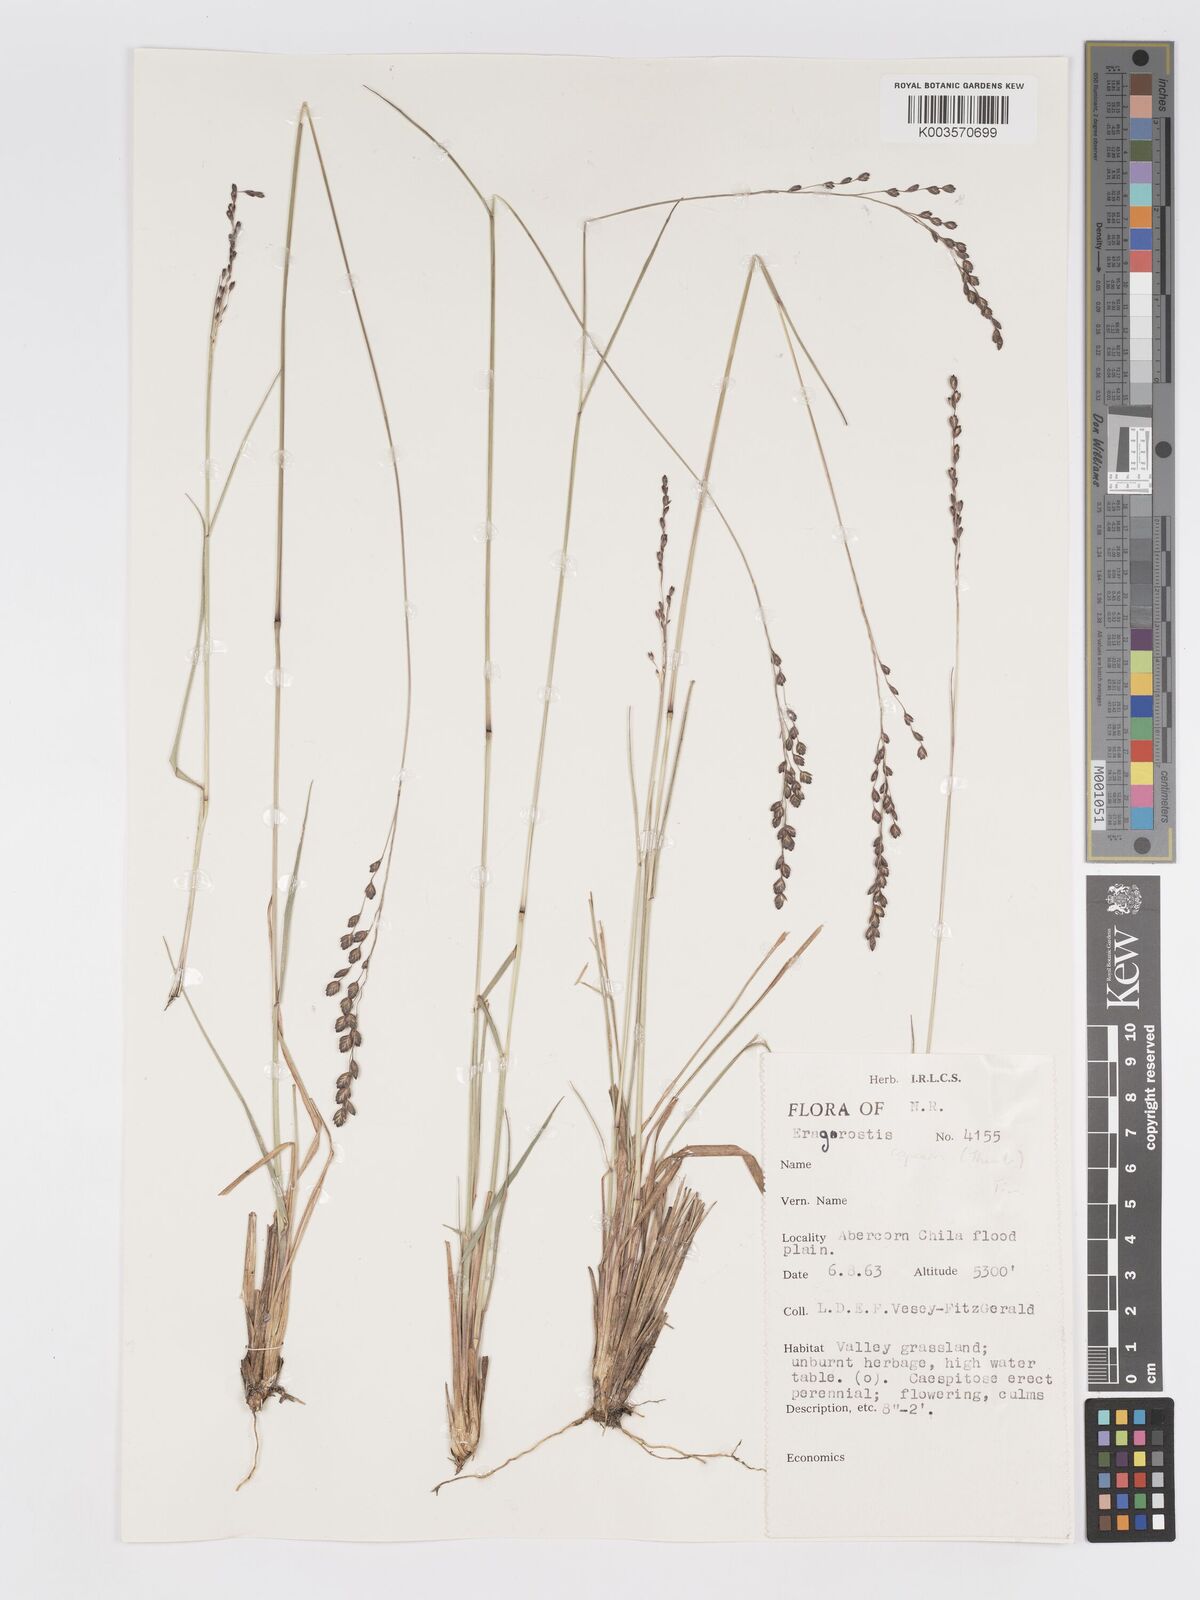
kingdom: Plantae
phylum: Tracheophyta
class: Liliopsida
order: Poales
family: Poaceae
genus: Eragrostis
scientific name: Eragrostis capensis
